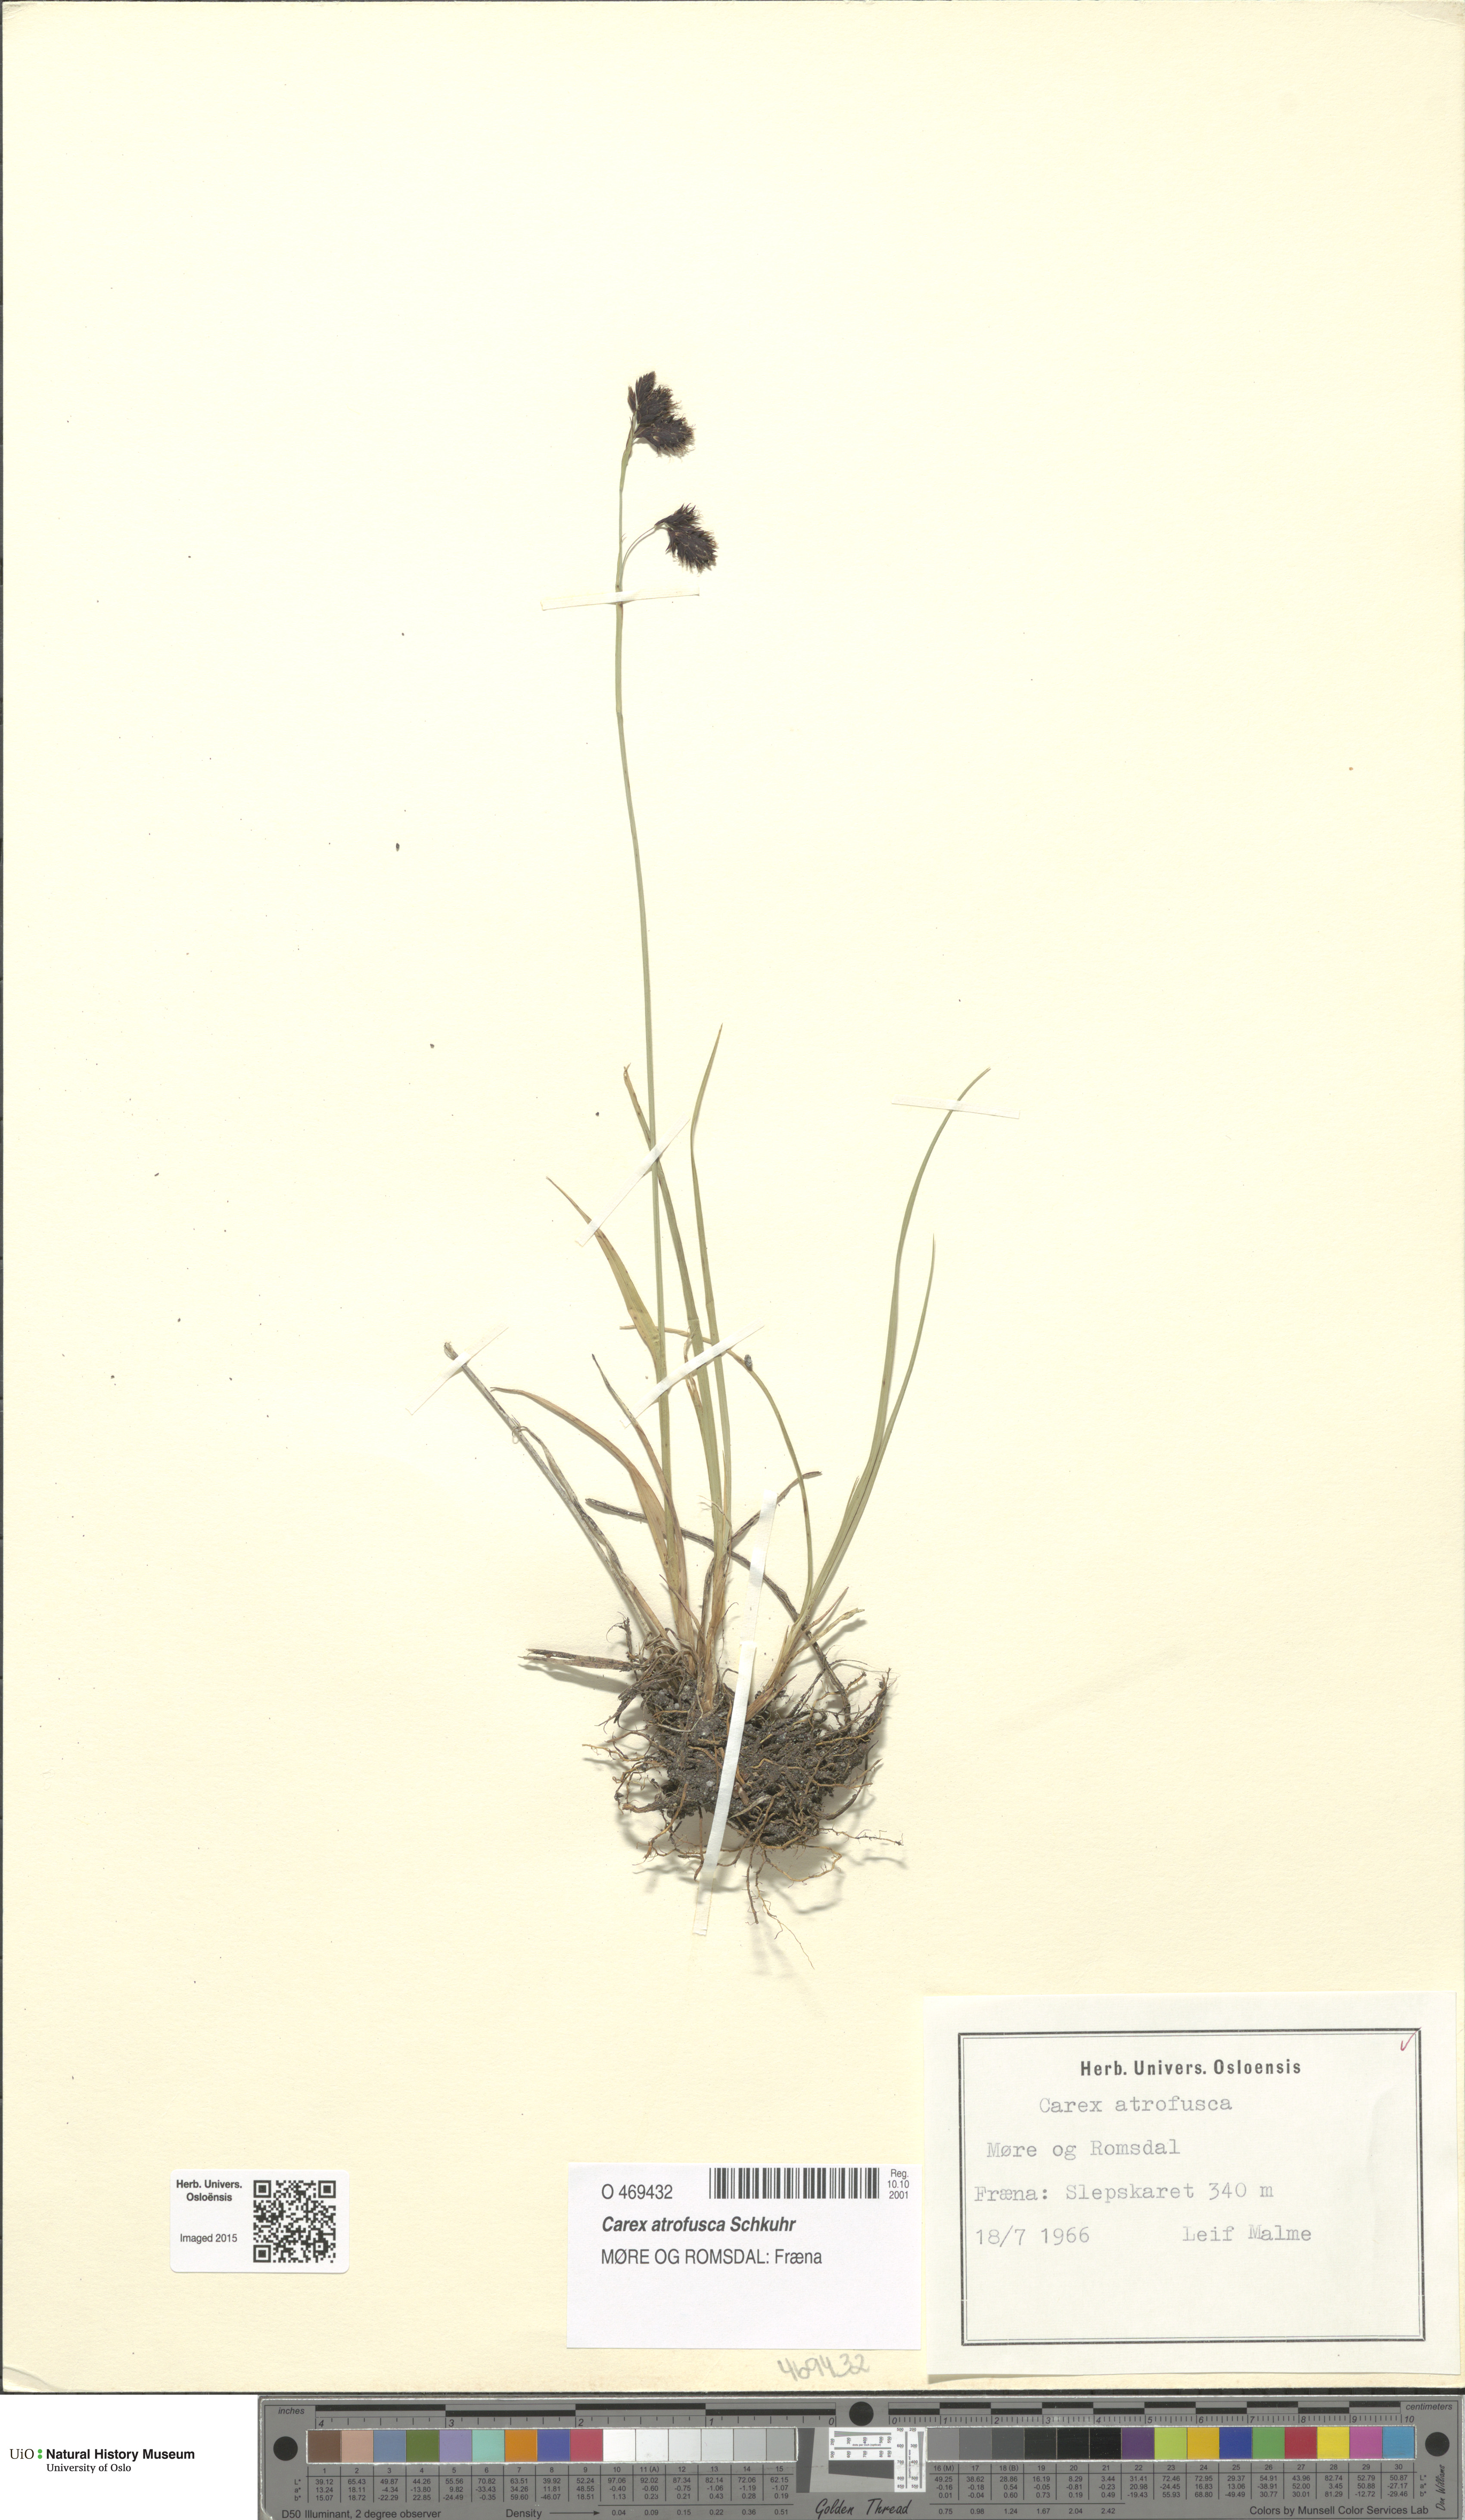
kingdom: Plantae
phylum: Tracheophyta
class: Liliopsida
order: Poales
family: Cyperaceae
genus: Carex
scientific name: Carex atrofusca
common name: Scorched alpine-sedge
